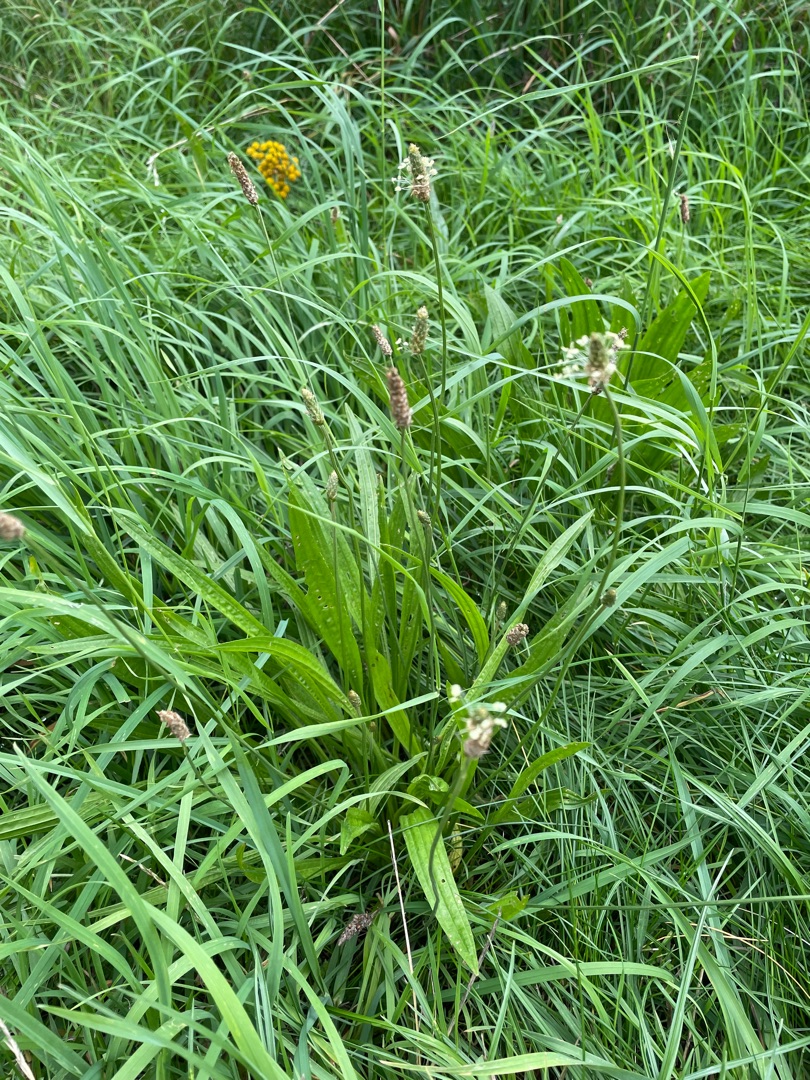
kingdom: Plantae
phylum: Tracheophyta
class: Magnoliopsida
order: Lamiales
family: Plantaginaceae
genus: Plantago
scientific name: Plantago lanceolata
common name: Lancet-vejbred
